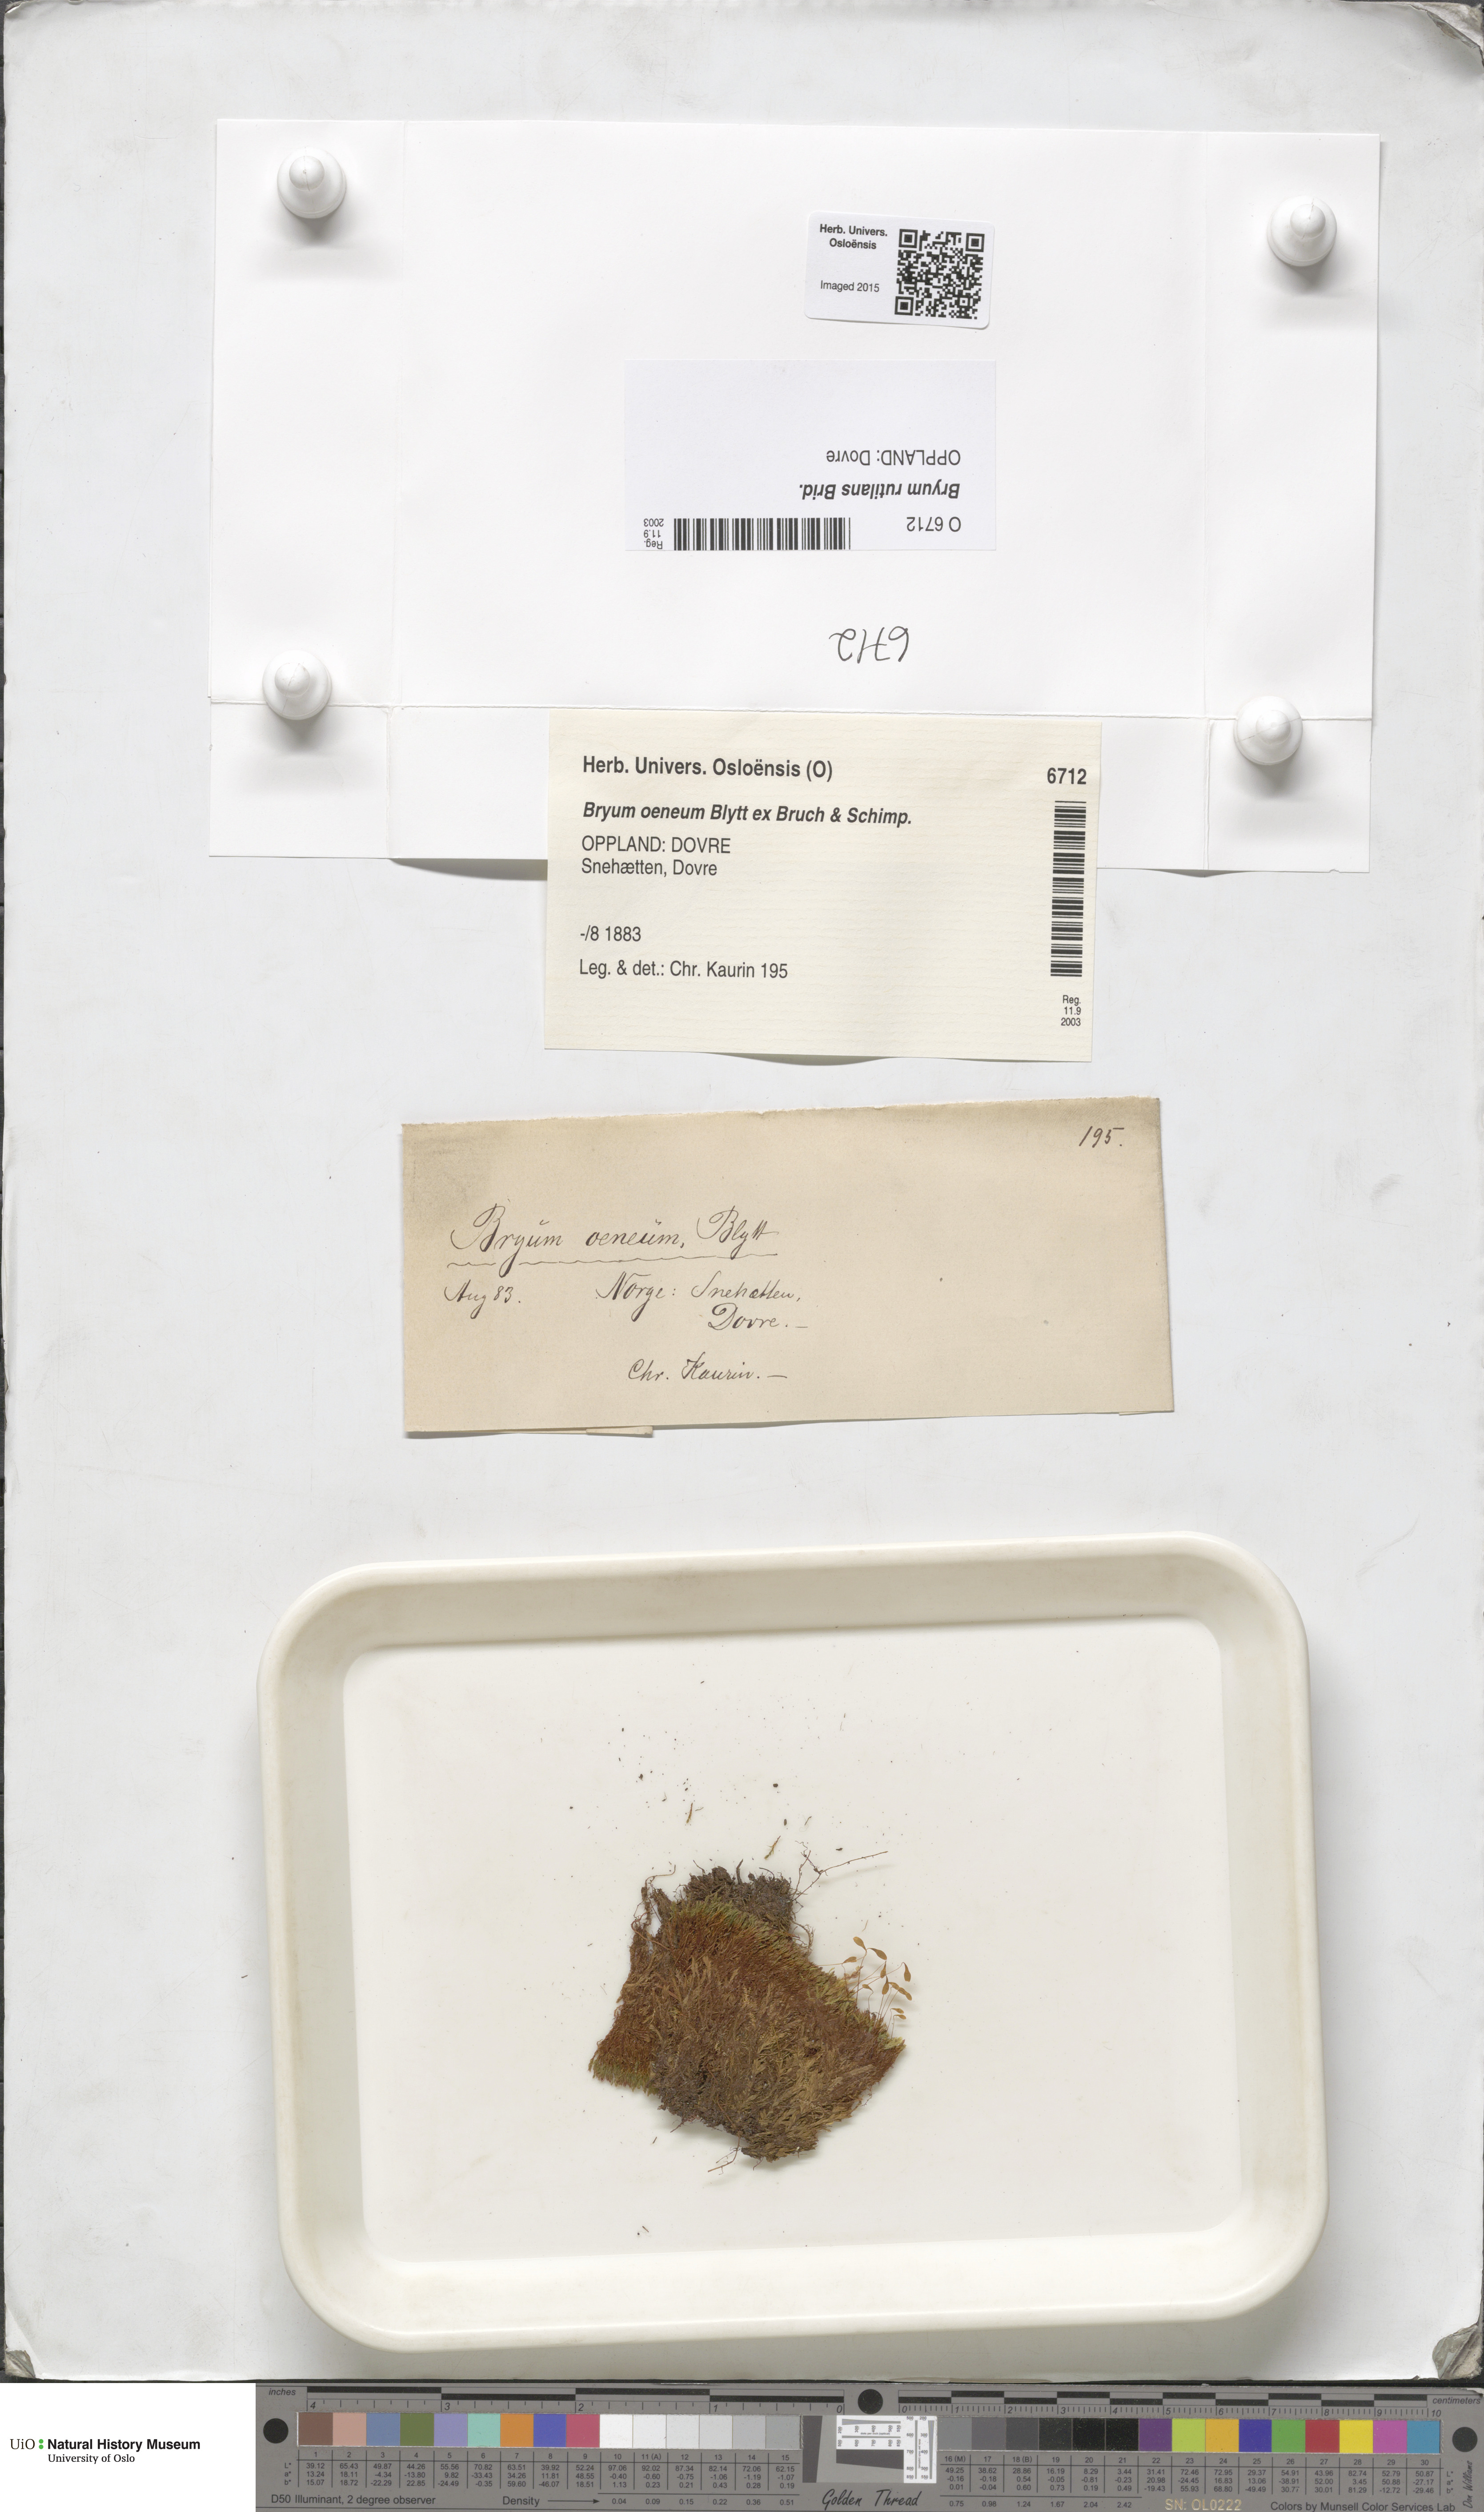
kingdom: Plantae
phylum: Bryophyta
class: Bryopsida
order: Bryales
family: Bryaceae
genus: Ptychostomum
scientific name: Ptychostomum pallens
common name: Pale thread-moss
